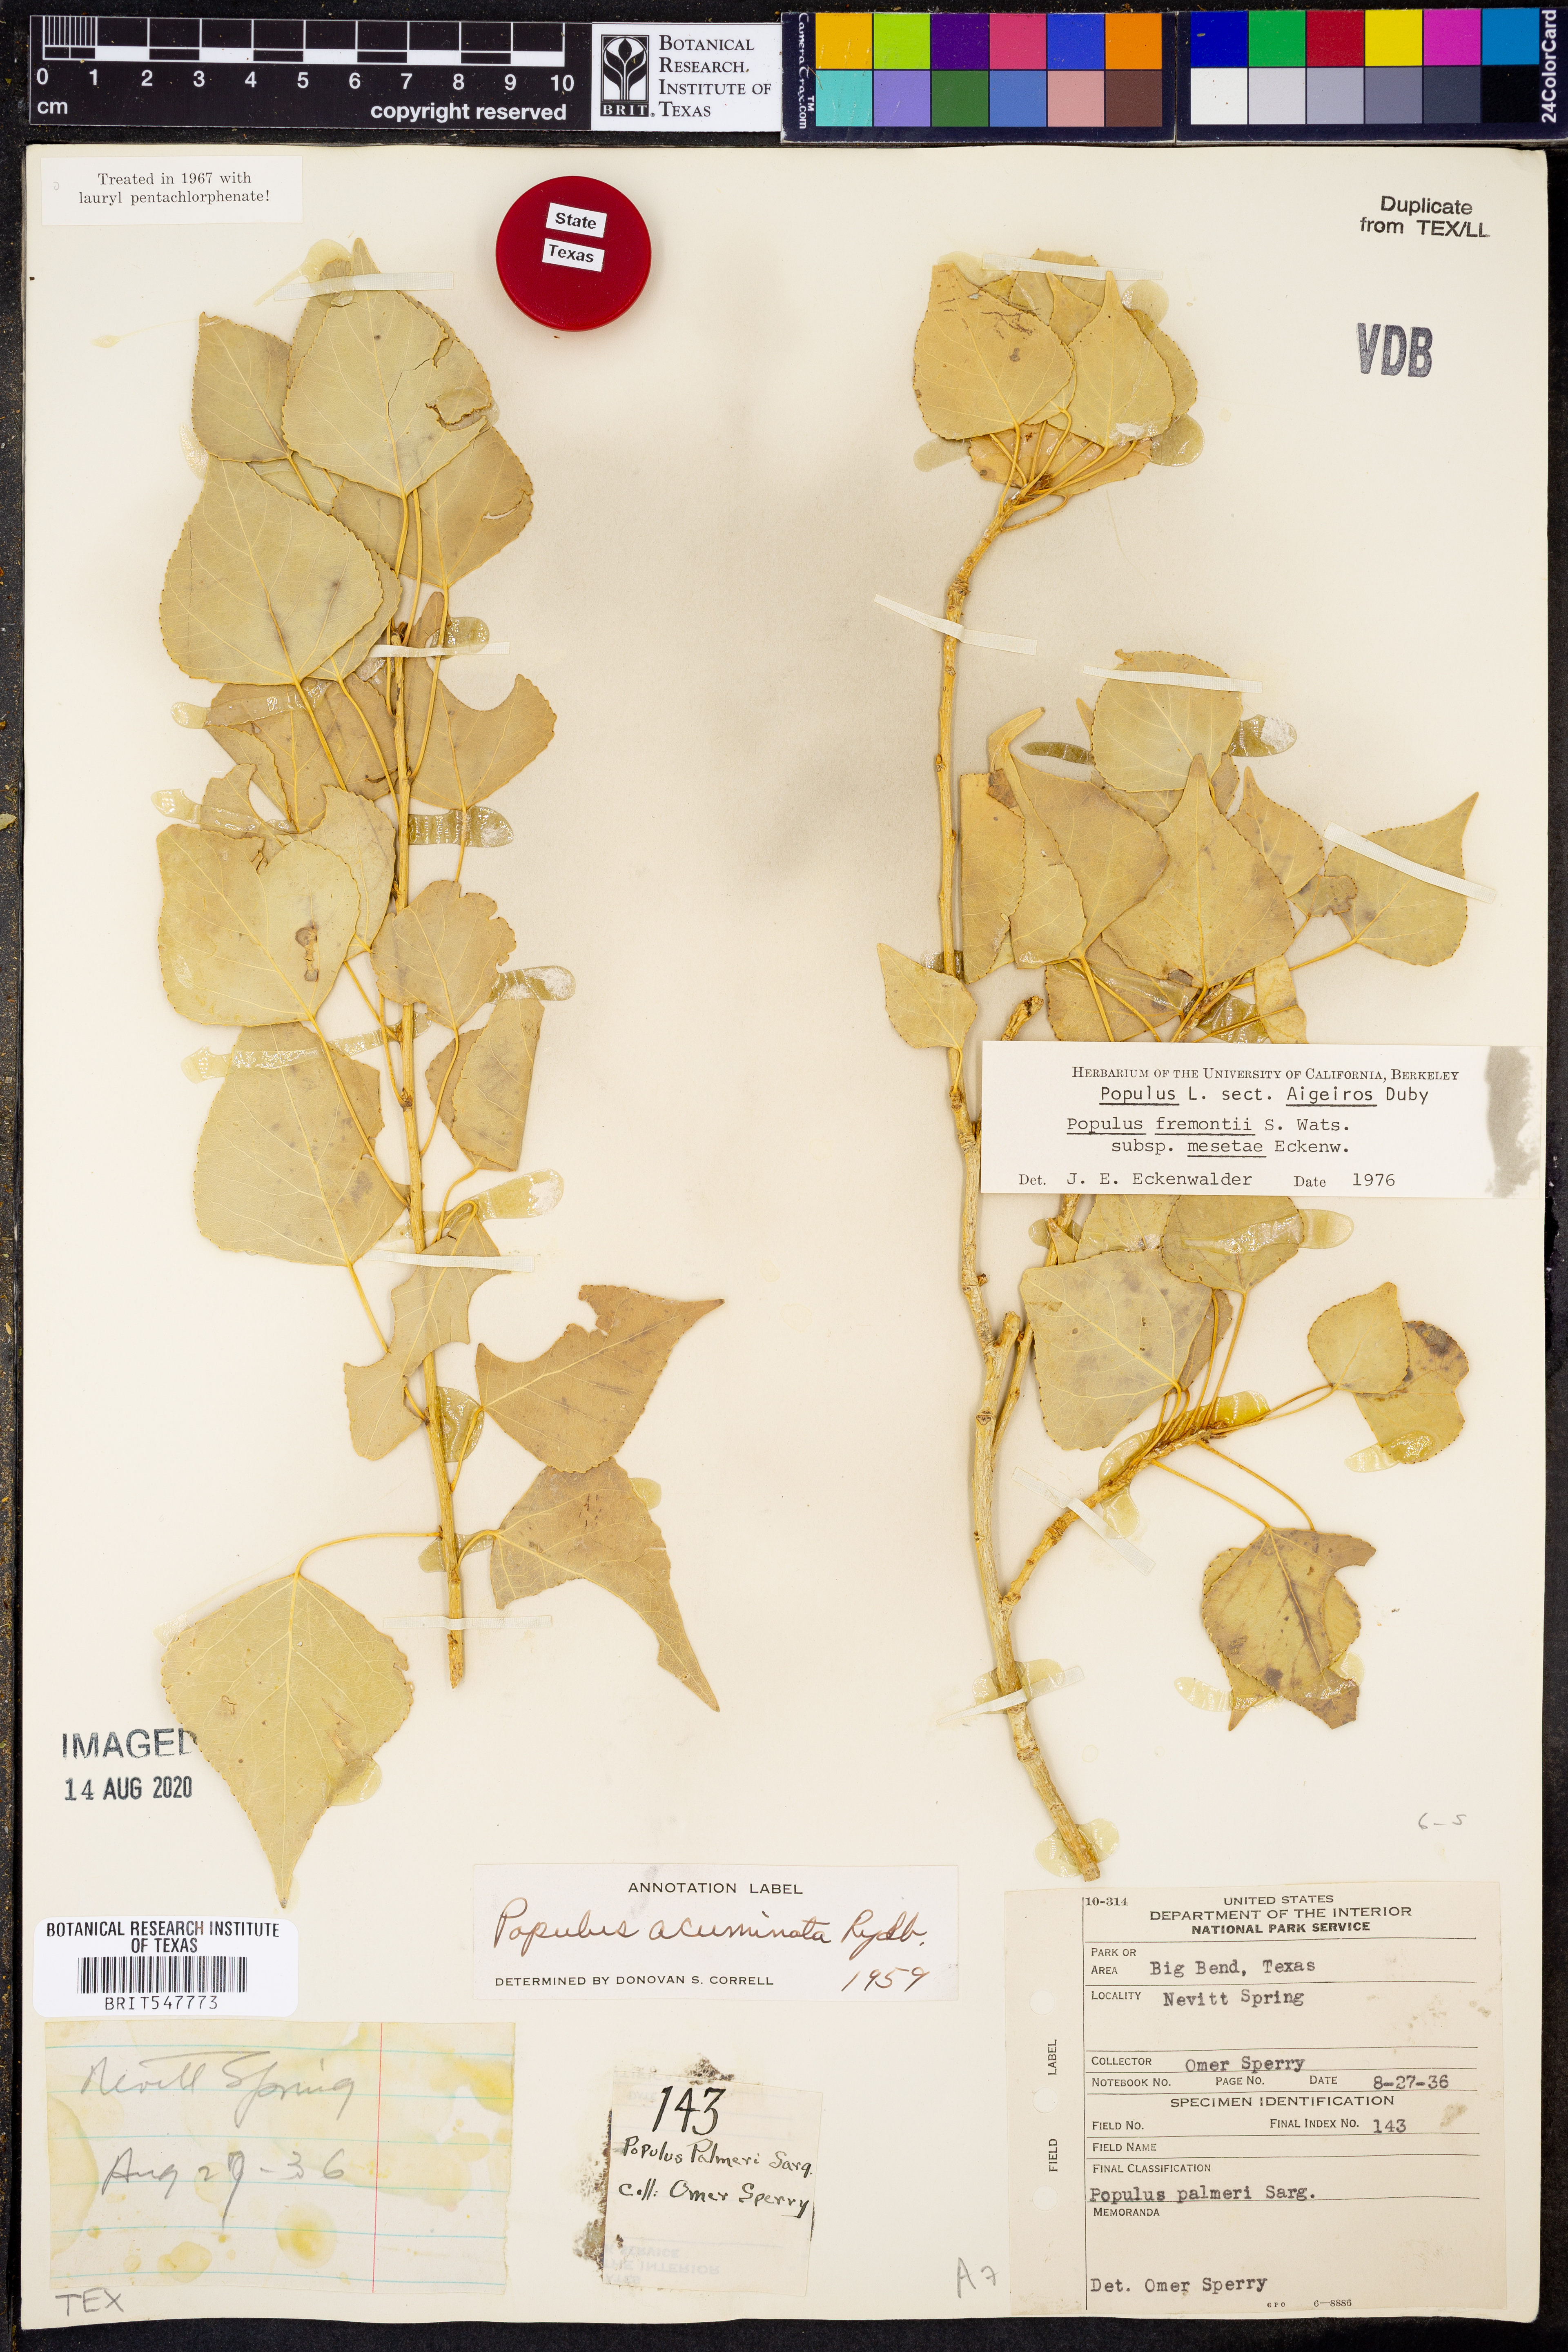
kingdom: Plantae
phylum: Tracheophyta
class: Magnoliopsida
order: Malpighiales
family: Salicaceae
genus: Populus
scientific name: Populus fremontii
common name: Fremont's cottonwood
